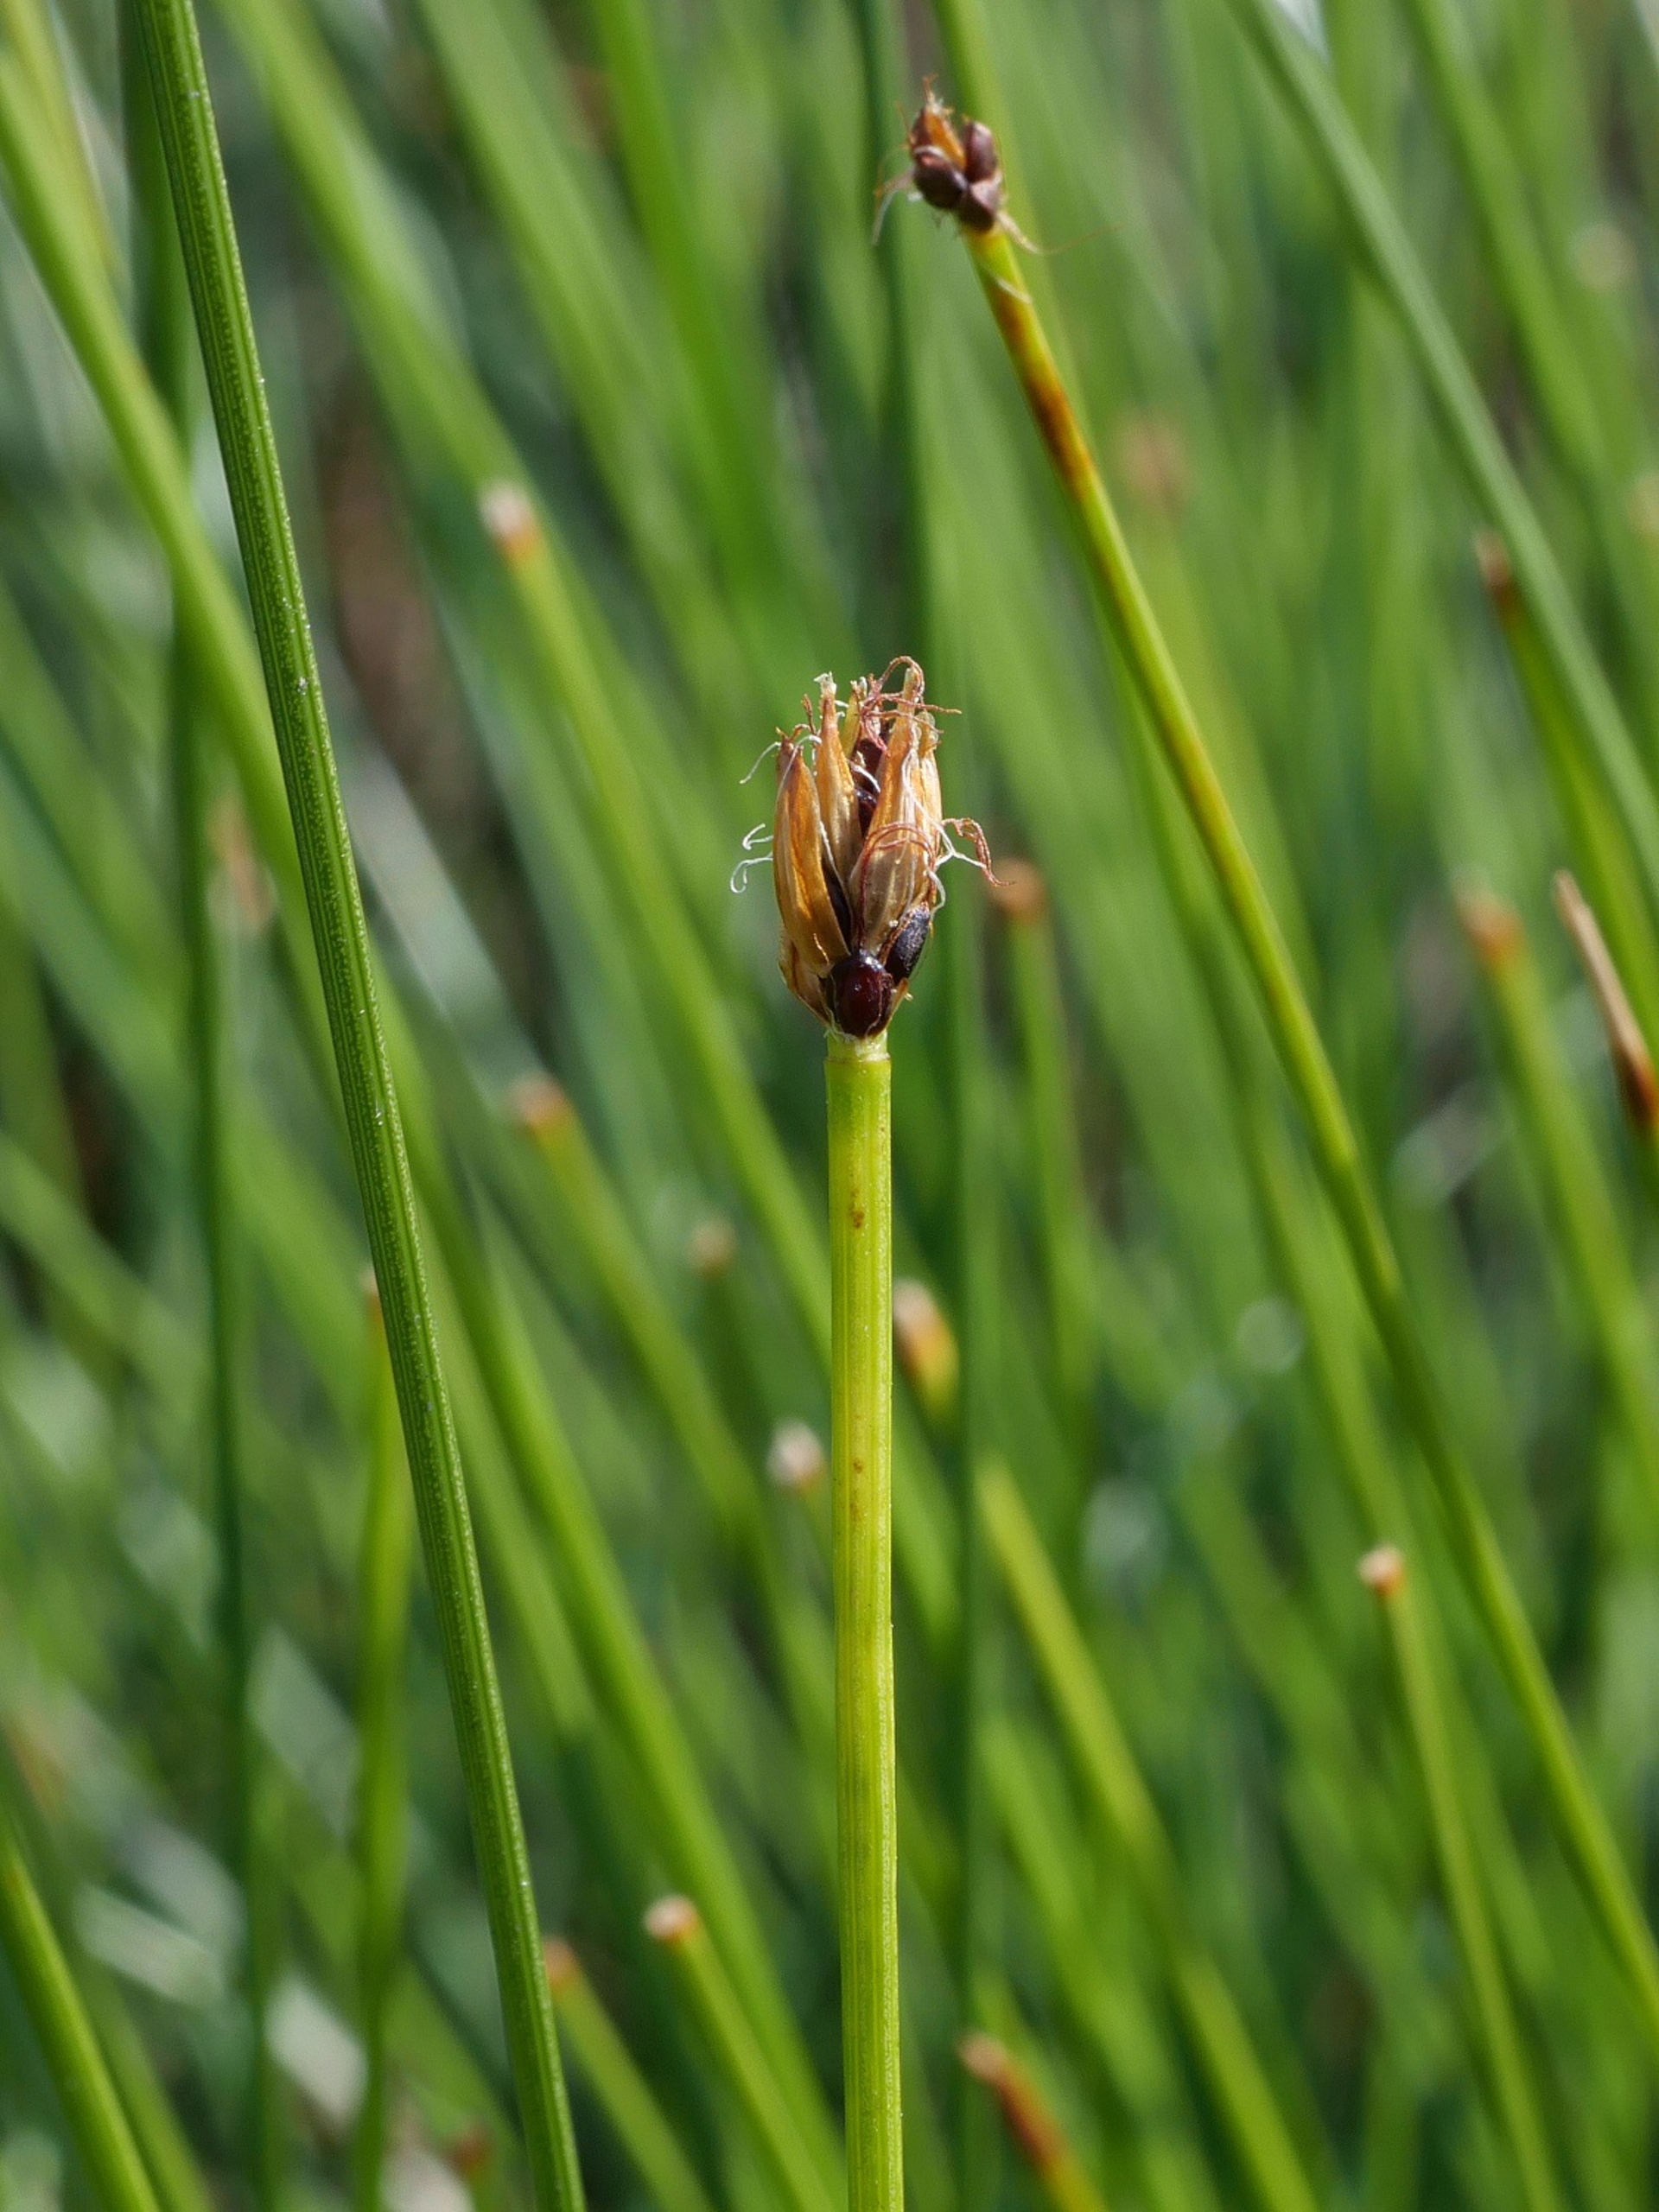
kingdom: Plantae
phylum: Tracheophyta
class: Liliopsida
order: Poales
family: Cyperaceae
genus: Trichophorum
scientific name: Trichophorum cespitosum
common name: Vestlig tuekogleaks
